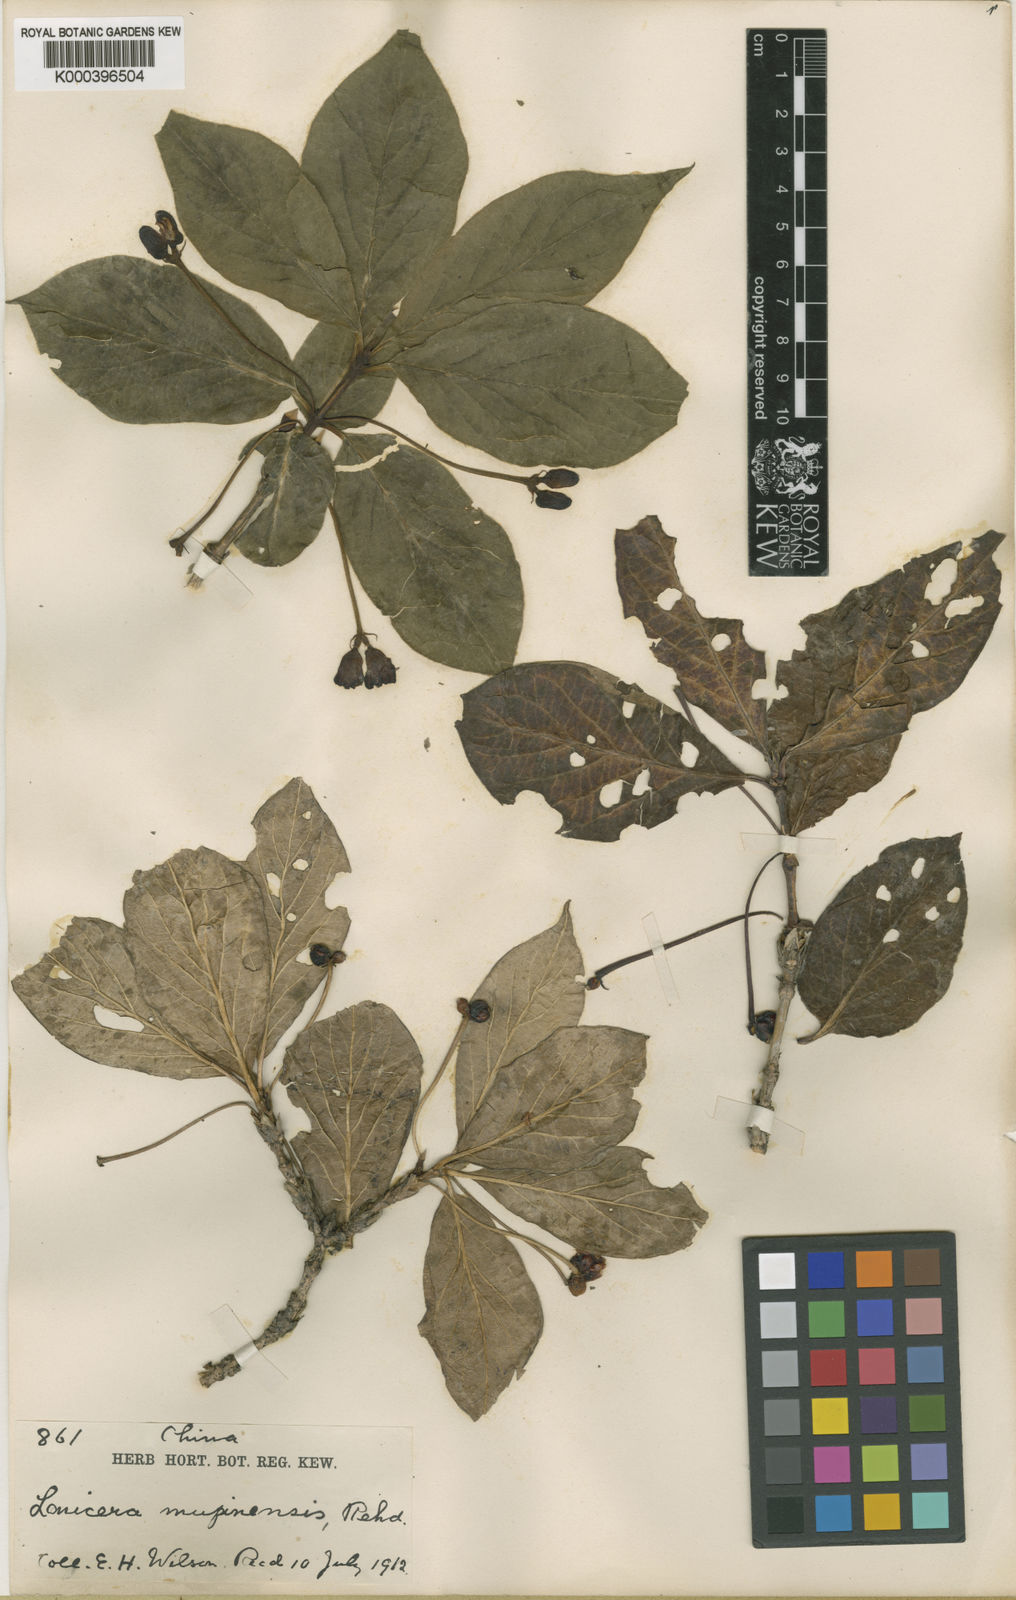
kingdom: Plantae
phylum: Tracheophyta
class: Magnoliopsida
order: Dipsacales
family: Caprifoliaceae
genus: Lonicera
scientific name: Lonicera webbiana
